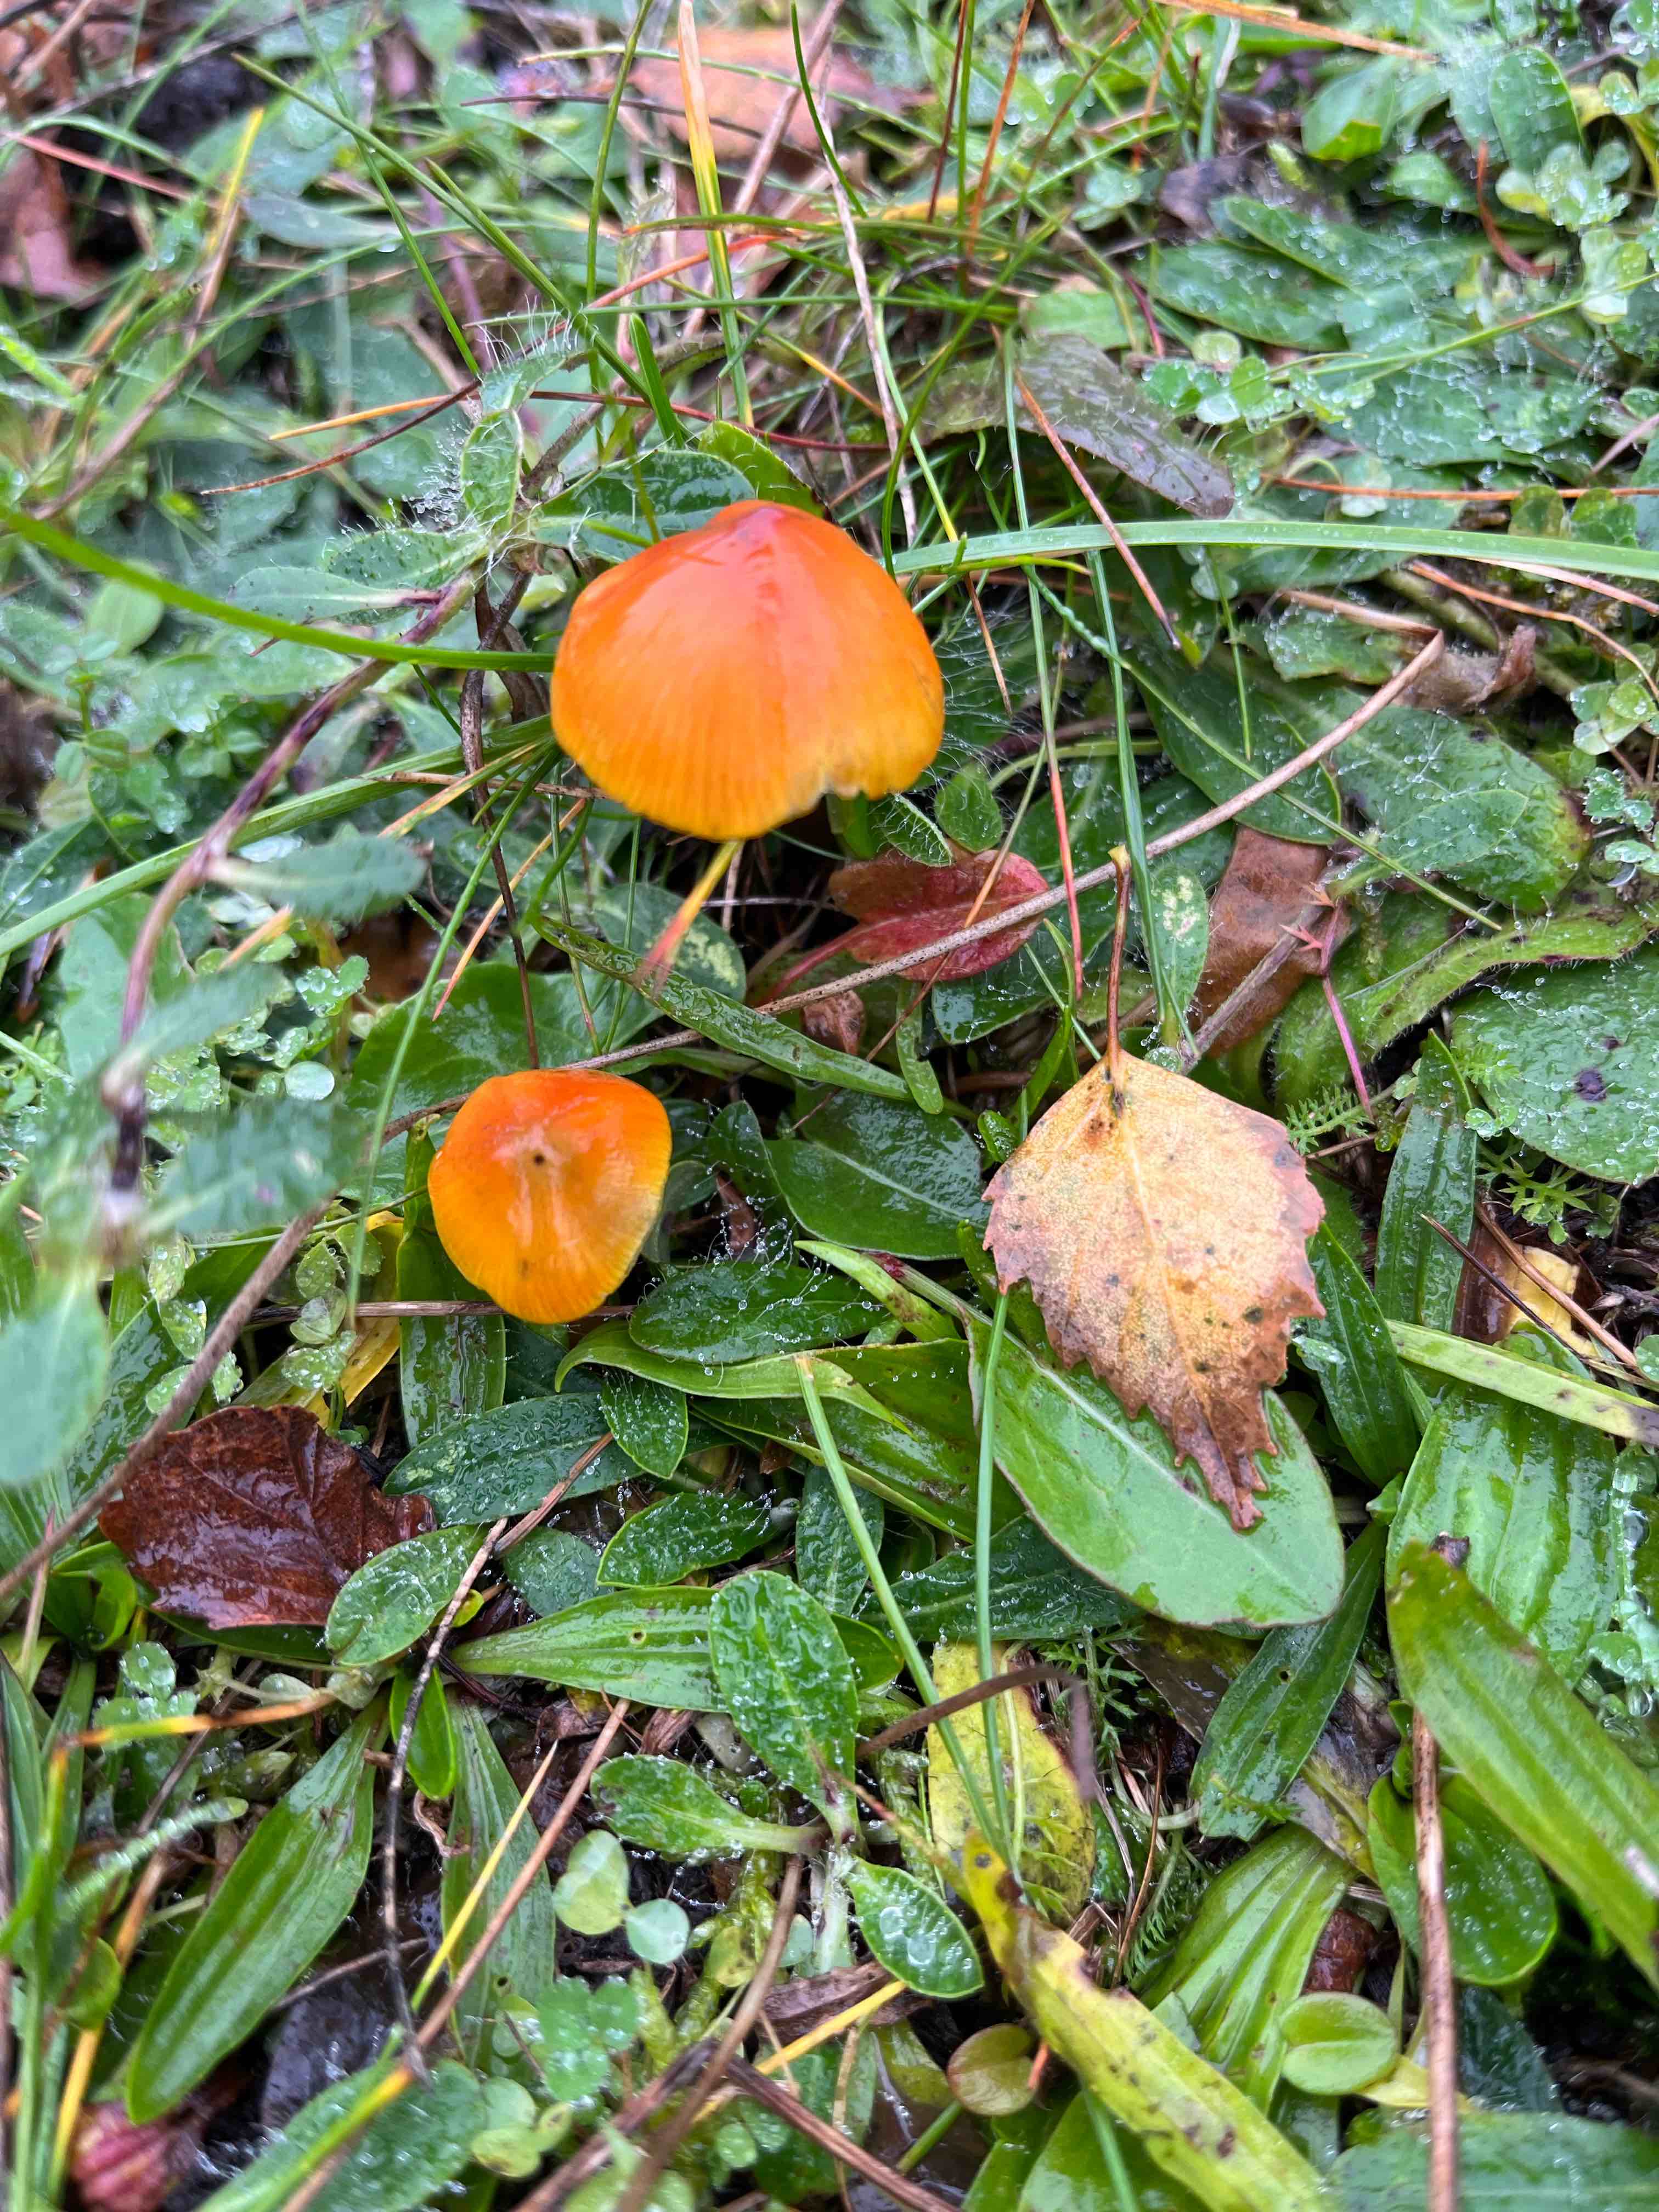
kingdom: Fungi
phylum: Basidiomycota
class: Agaricomycetes
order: Agaricales
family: Hygrophoraceae
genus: Hygrocybe
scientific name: Hygrocybe conica
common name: kegle-vokshat
